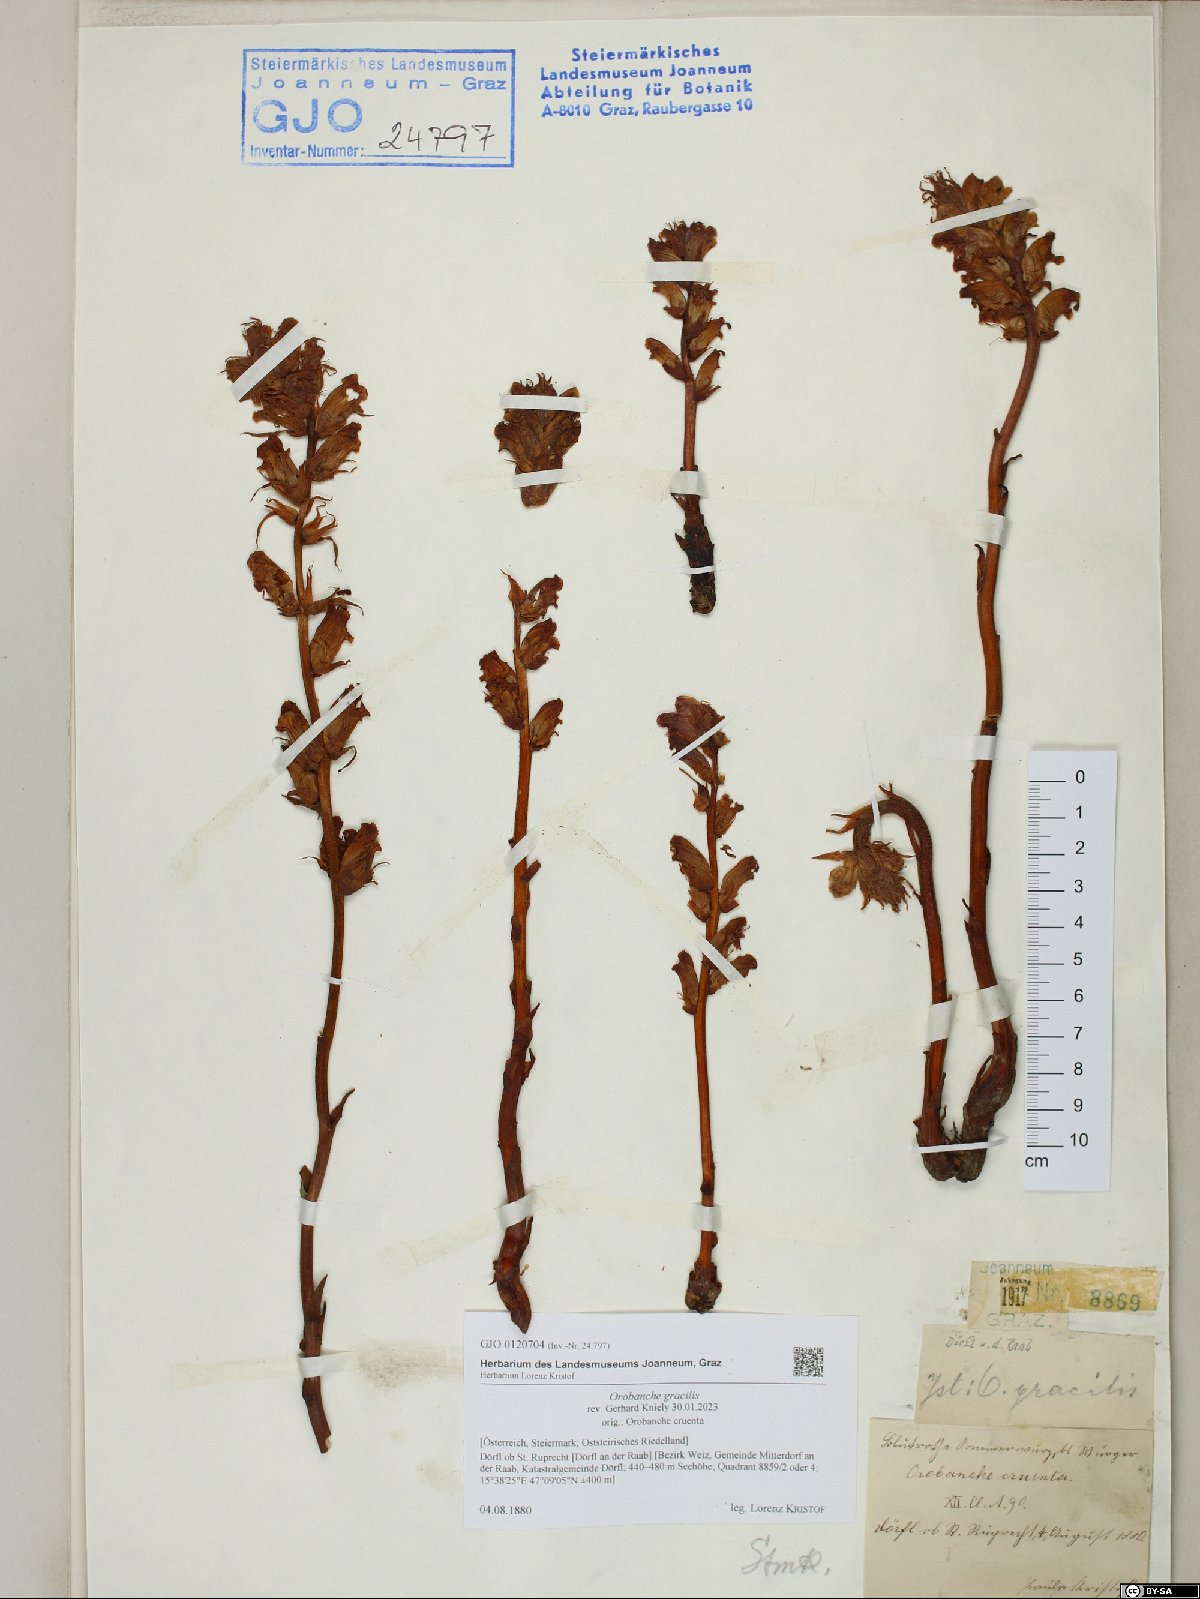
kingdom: Plantae
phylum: Tracheophyta
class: Magnoliopsida
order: Lamiales
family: Orobanchaceae
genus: Orobanche
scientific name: Orobanche gracilis
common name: Slender broomrape
